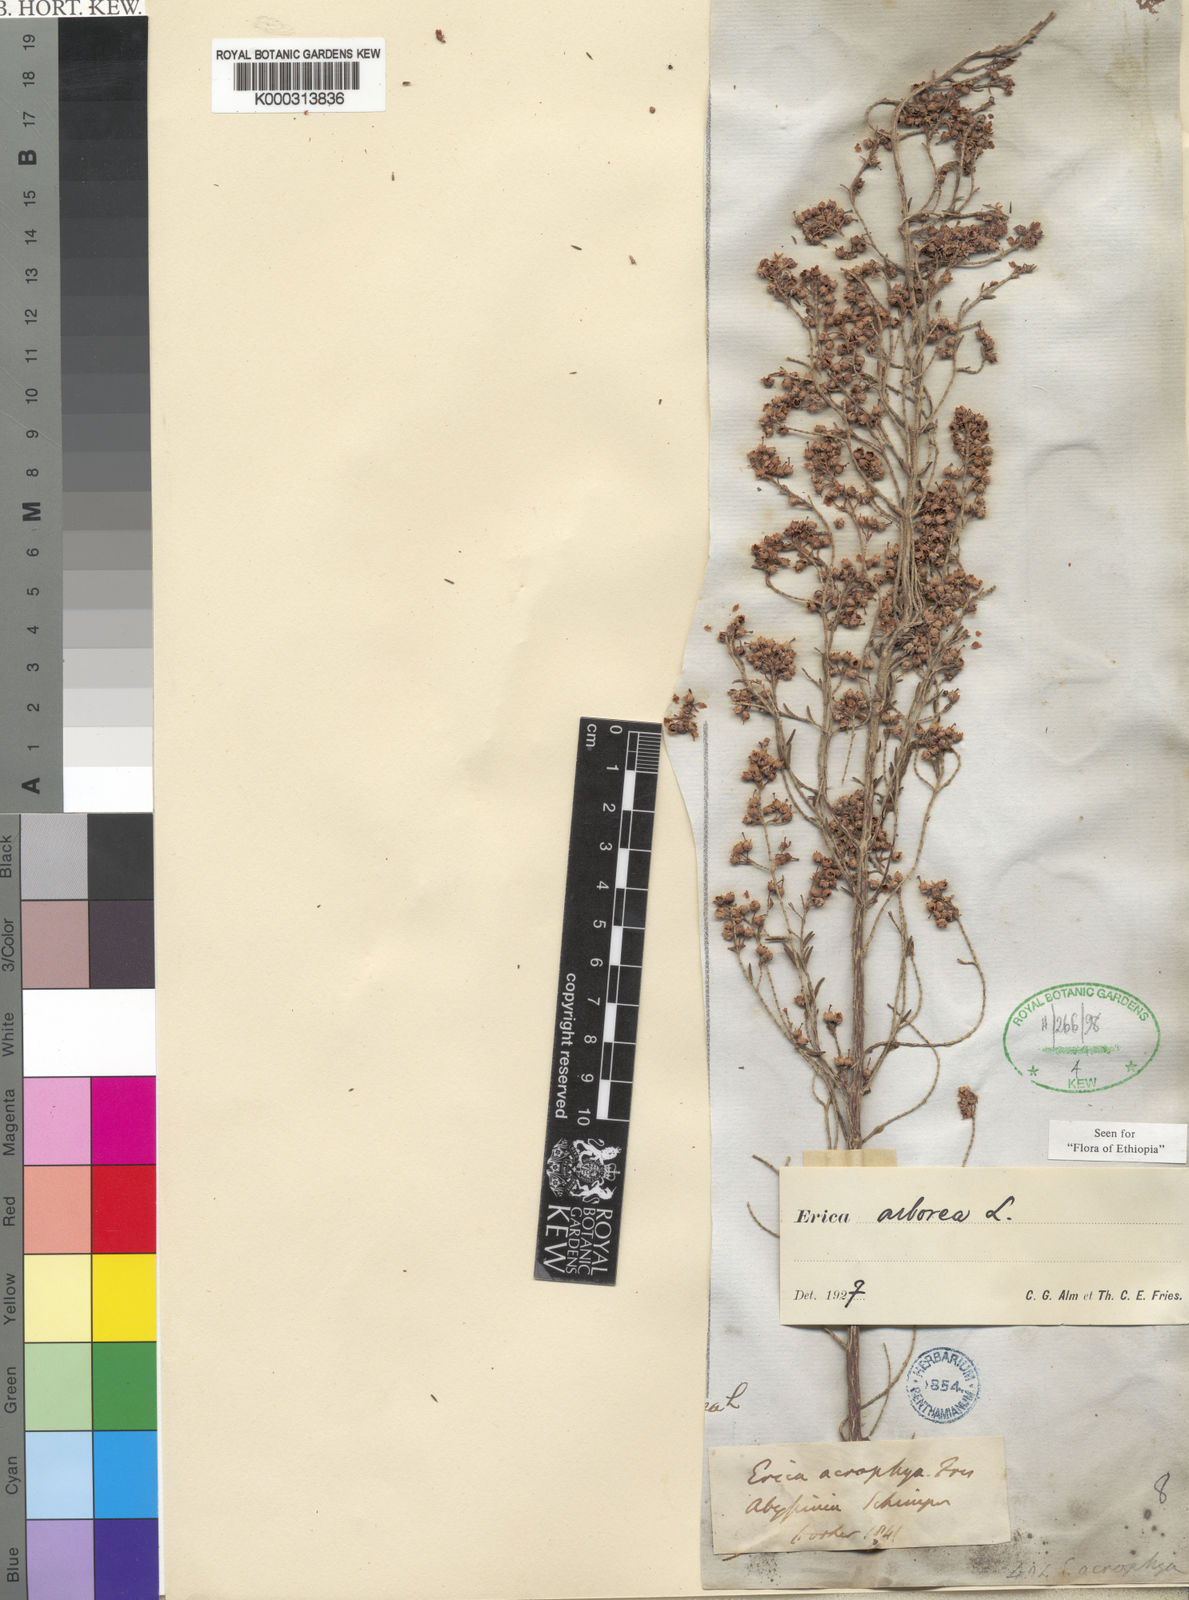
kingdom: Plantae
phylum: Tracheophyta
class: Magnoliopsida
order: Ericales
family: Ericaceae
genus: Erica
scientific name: Erica arborea
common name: Tree heath
